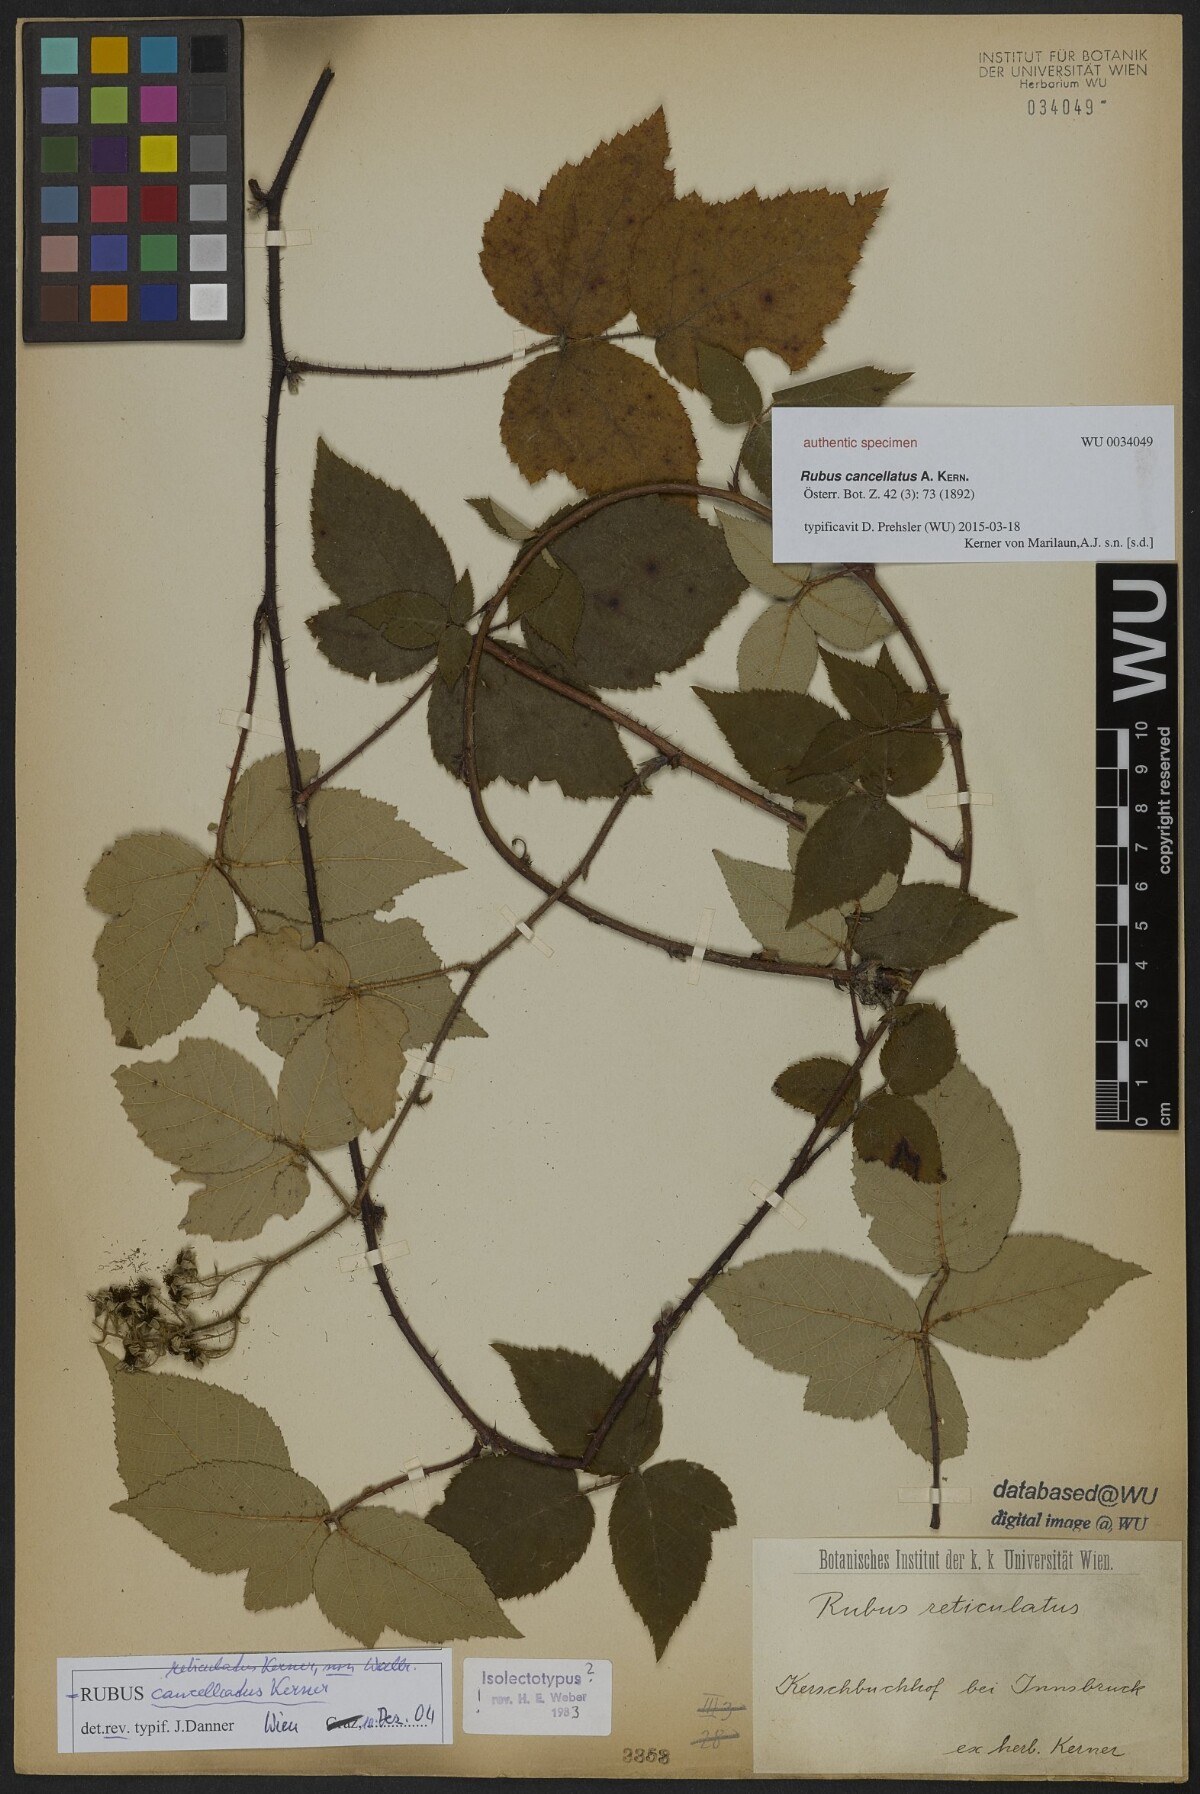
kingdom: Plantae
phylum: Tracheophyta
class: Magnoliopsida
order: Rosales
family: Rosaceae
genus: Rubus
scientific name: Rubus reticulatus
